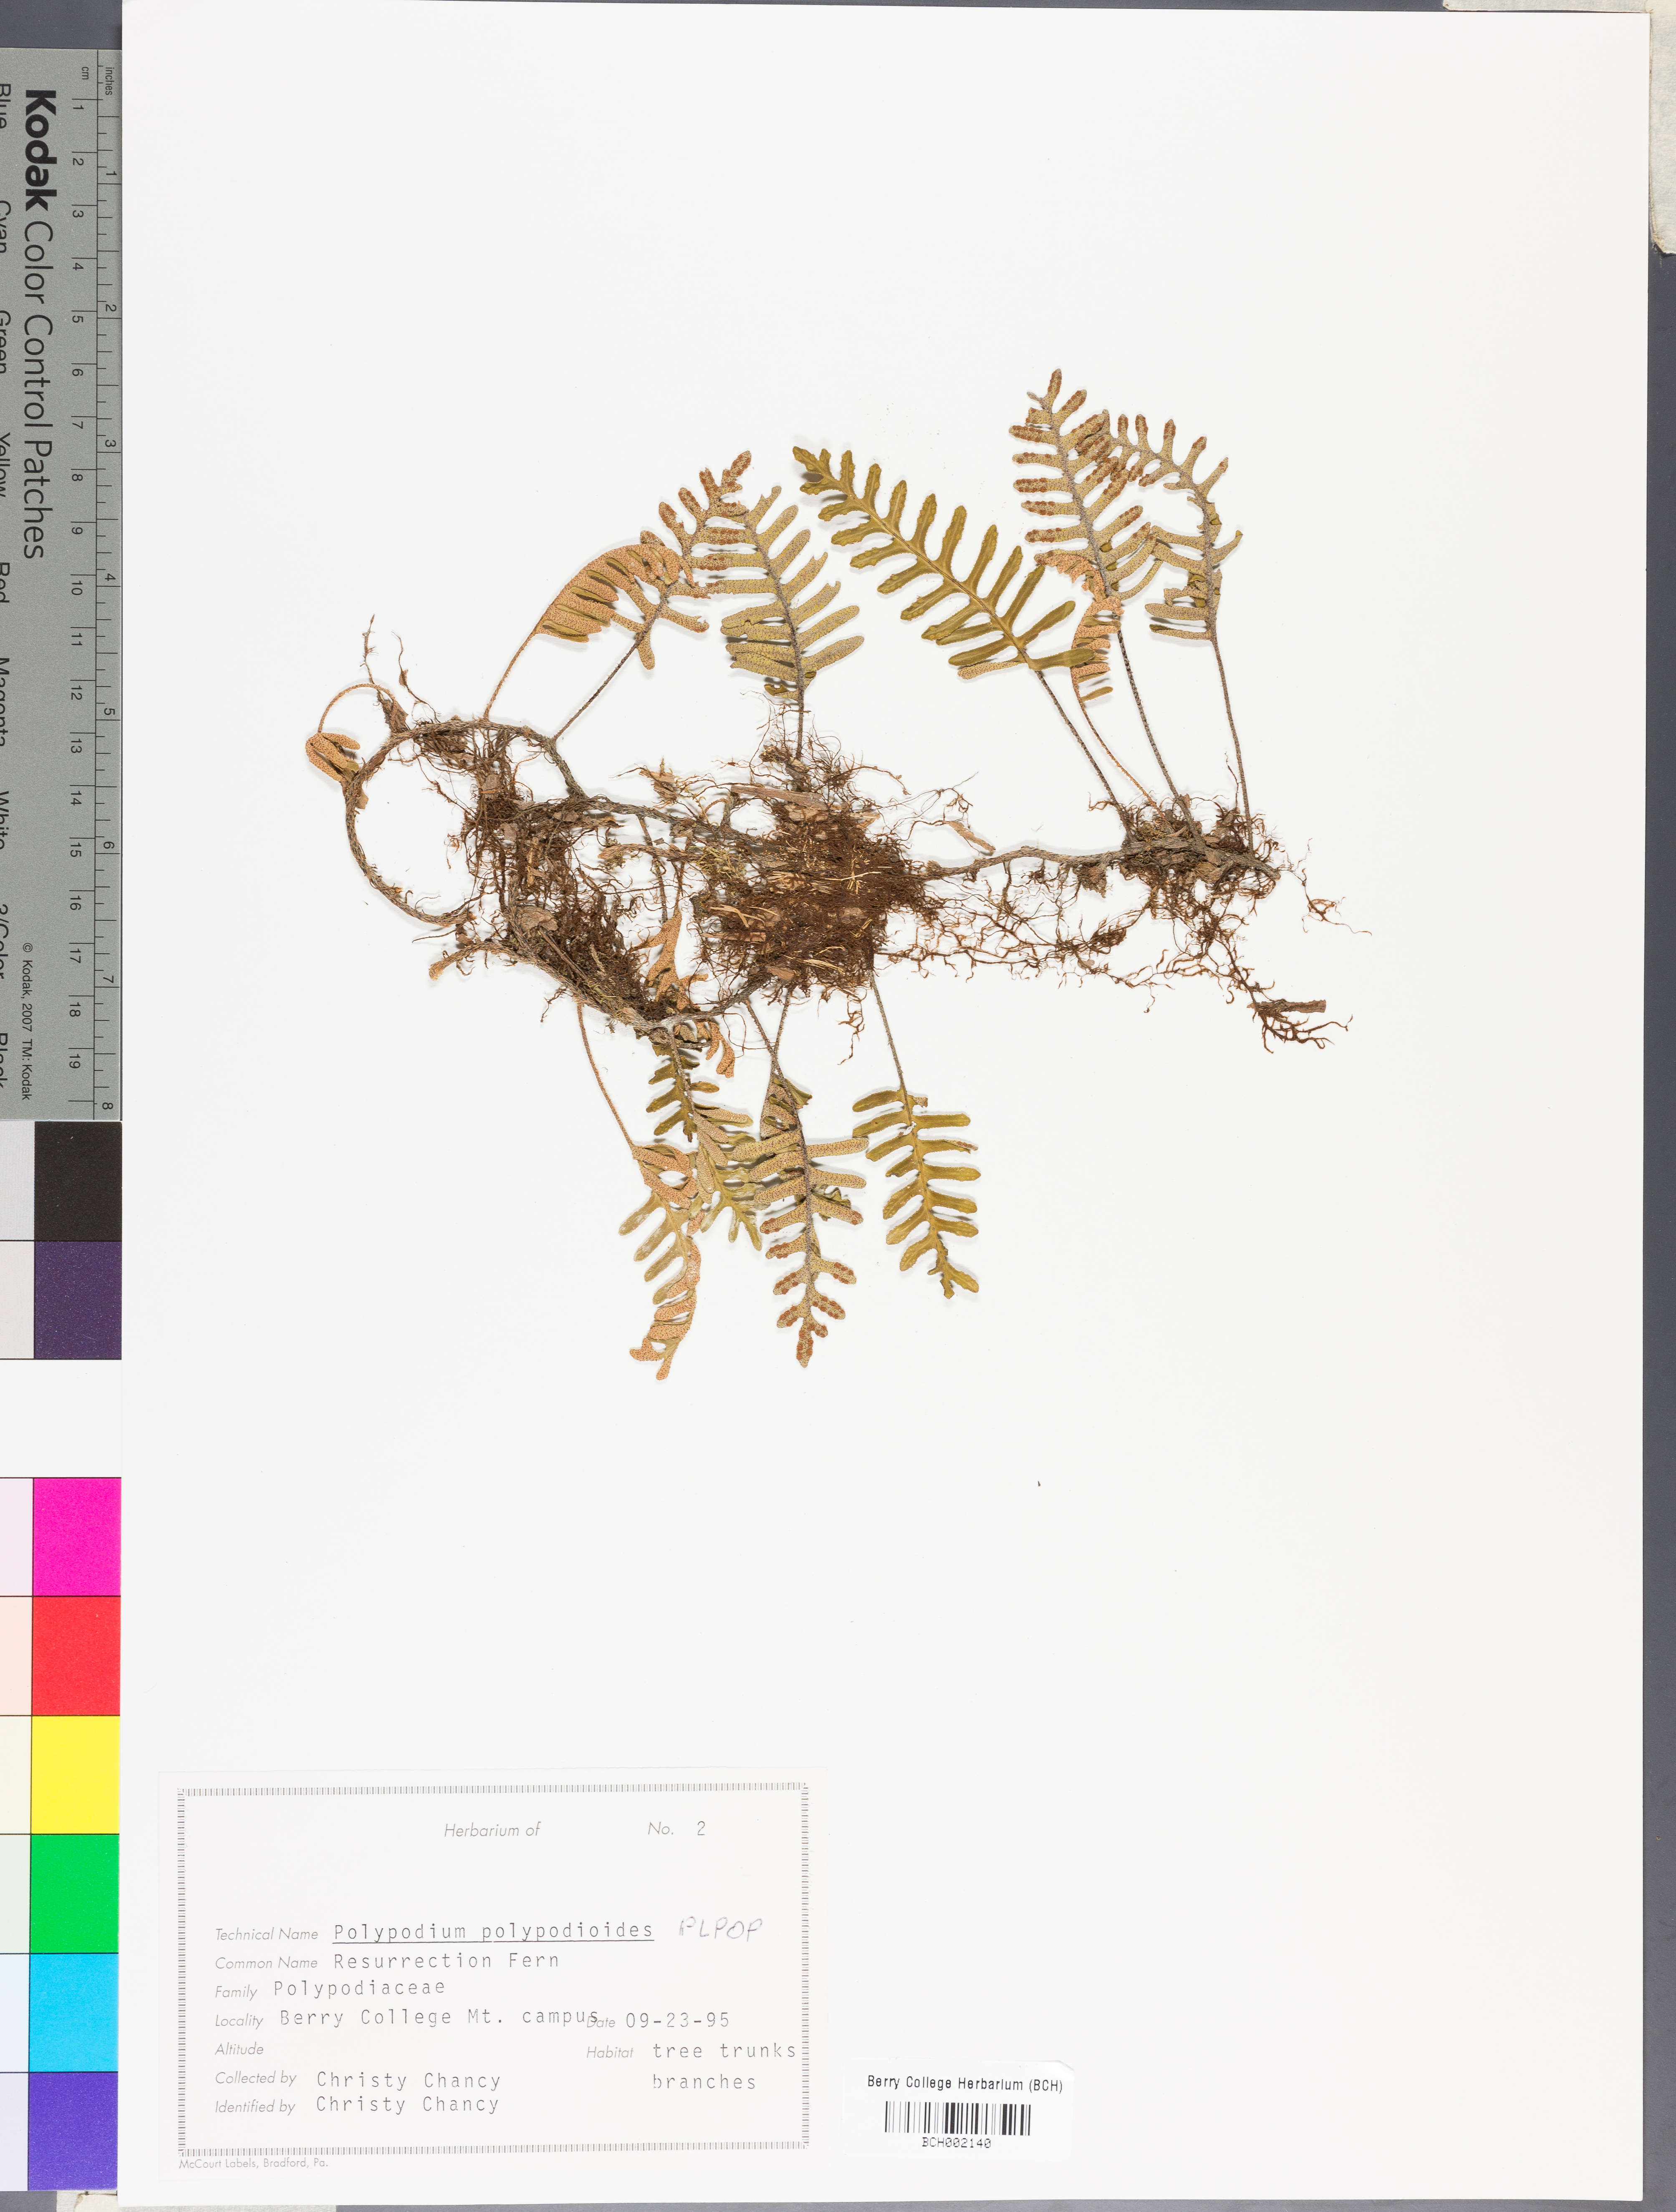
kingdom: Plantae
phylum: Tracheophyta
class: Polypodiopsida
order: Polypodiales
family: Polypodiaceae
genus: Pleopeltis
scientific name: Pleopeltis polypodioides
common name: Resurrection fern
